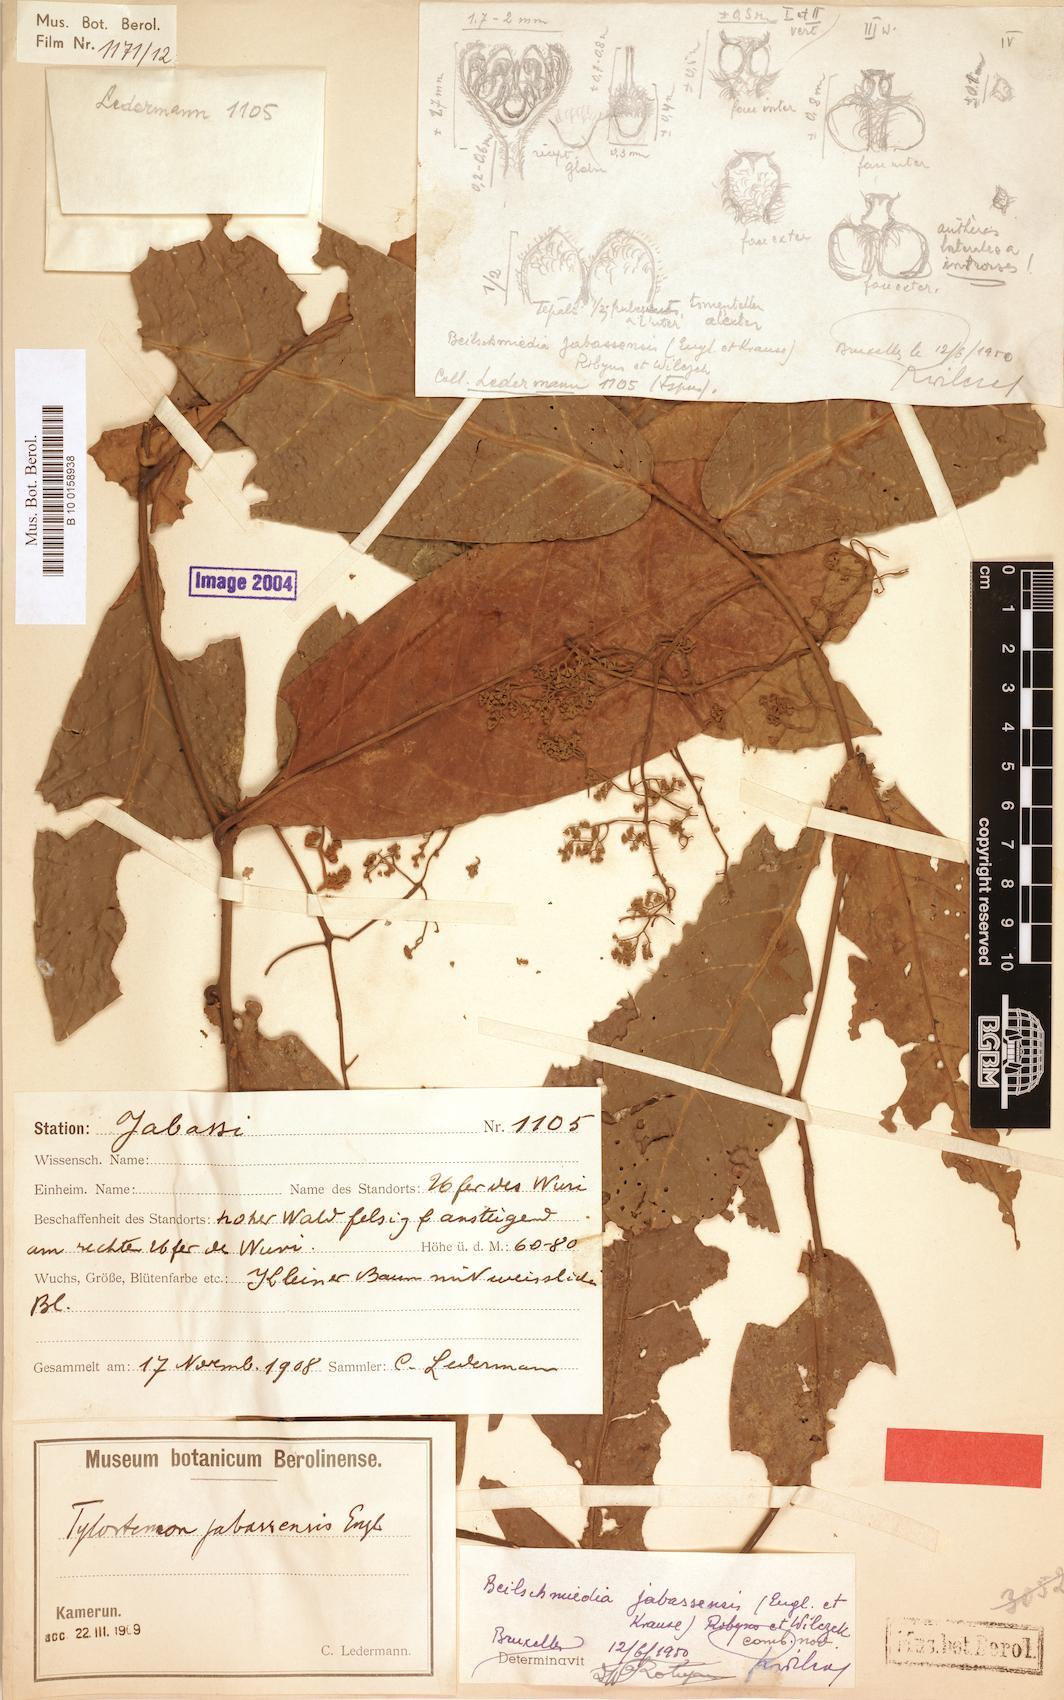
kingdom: Plantae
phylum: Tracheophyta
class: Magnoliopsida
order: Laurales
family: Lauraceae
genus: Beilschmiedia
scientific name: Beilschmiedia jabassensis
